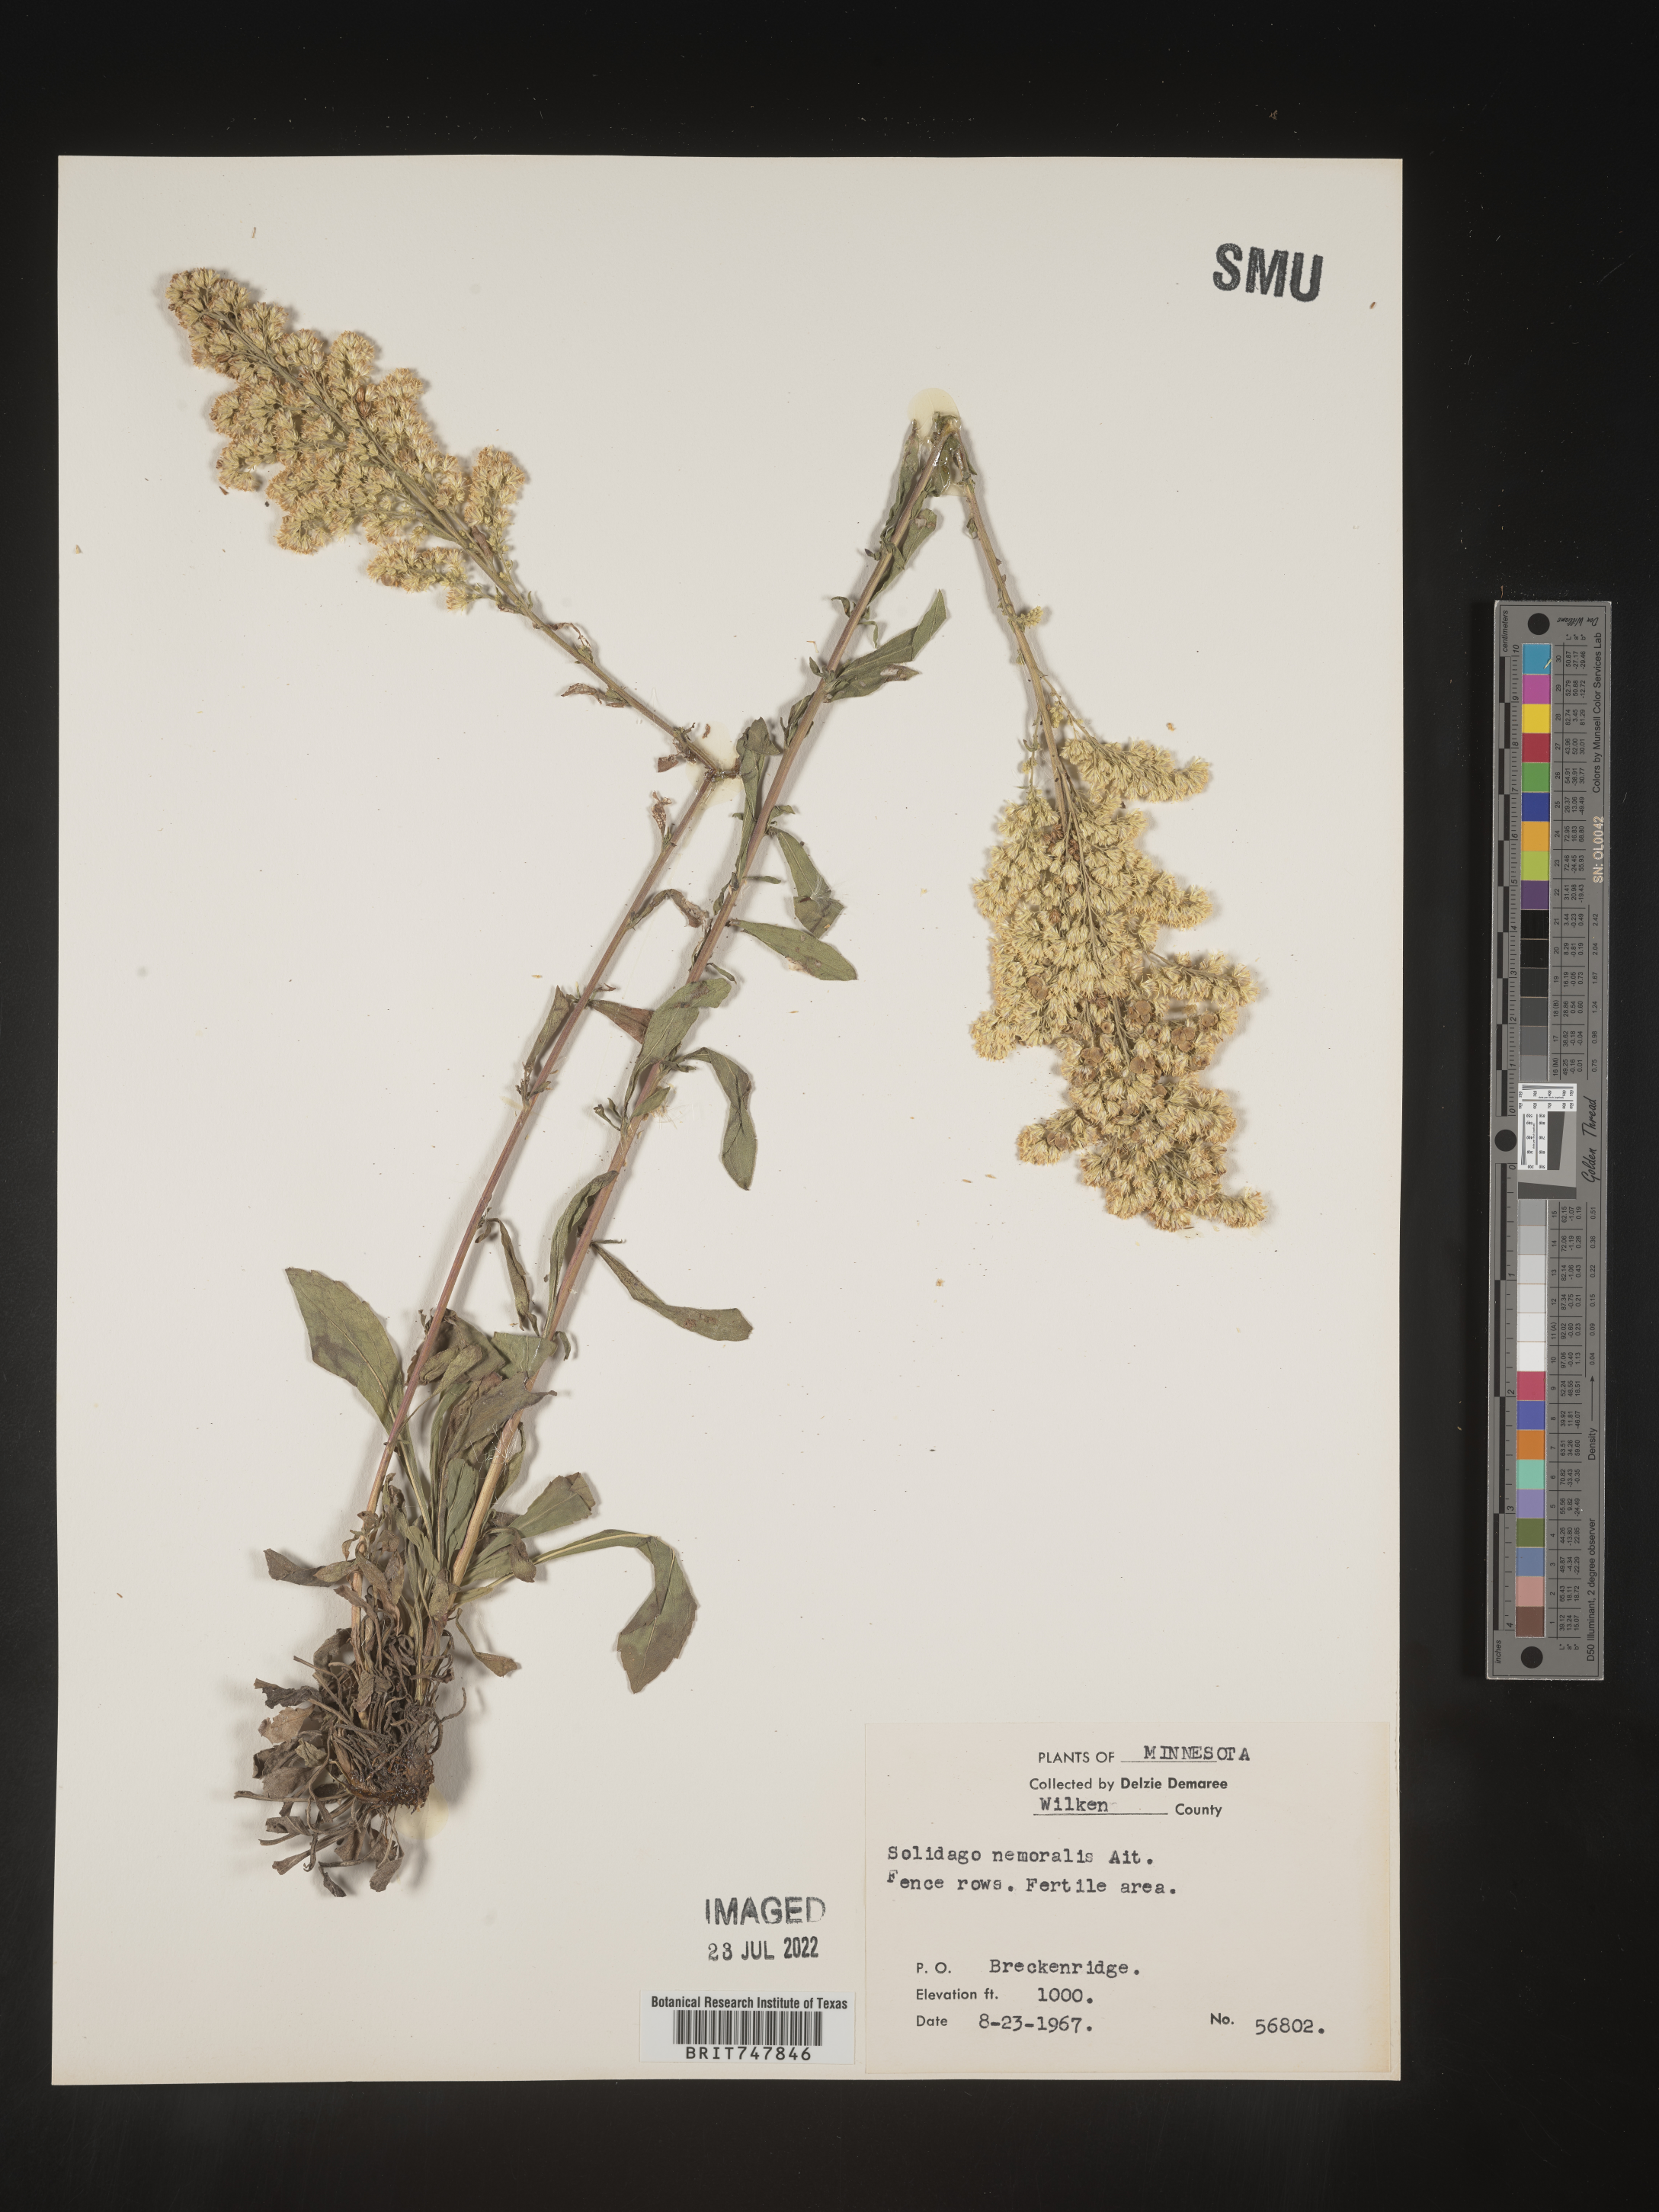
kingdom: Plantae
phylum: Tracheophyta
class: Magnoliopsida
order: Asterales
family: Asteraceae
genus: Solidago
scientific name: Solidago nemoralis
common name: Grey goldenrod
